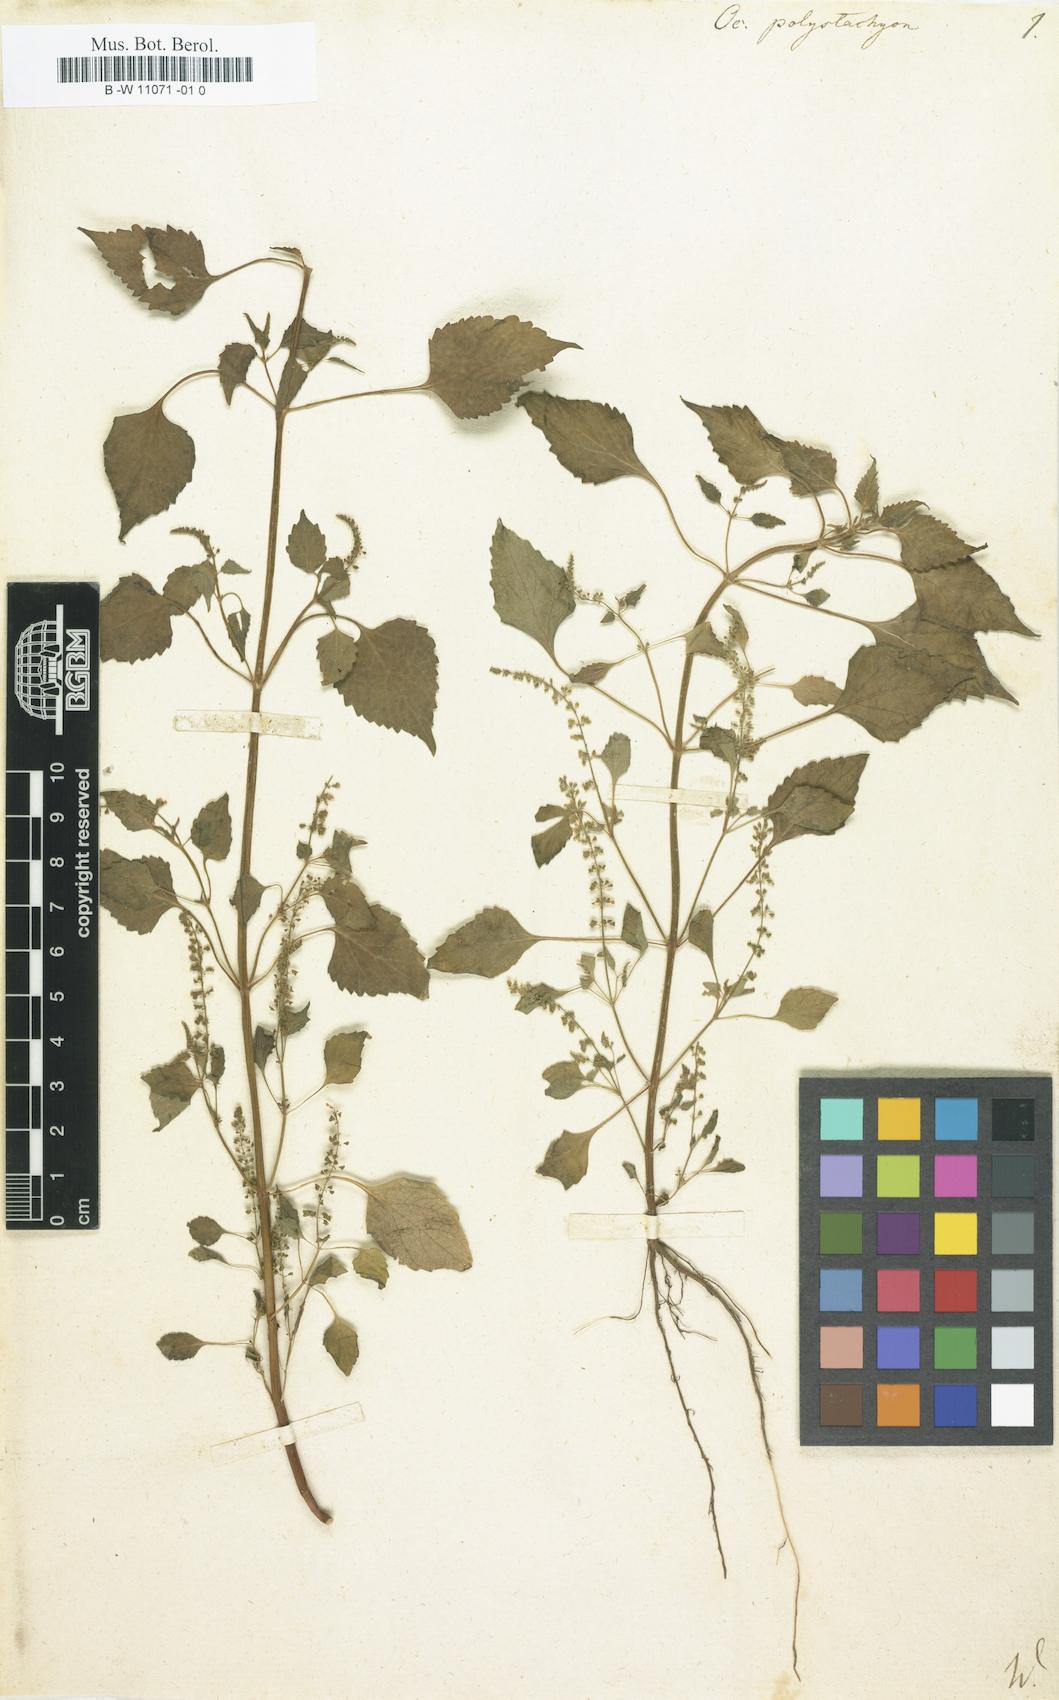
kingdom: Plantae
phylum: Tracheophyta
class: Magnoliopsida
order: Lamiales
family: Lamiaceae
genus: Basilicum
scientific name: Basilicum polystachyon
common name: Musk-basil
